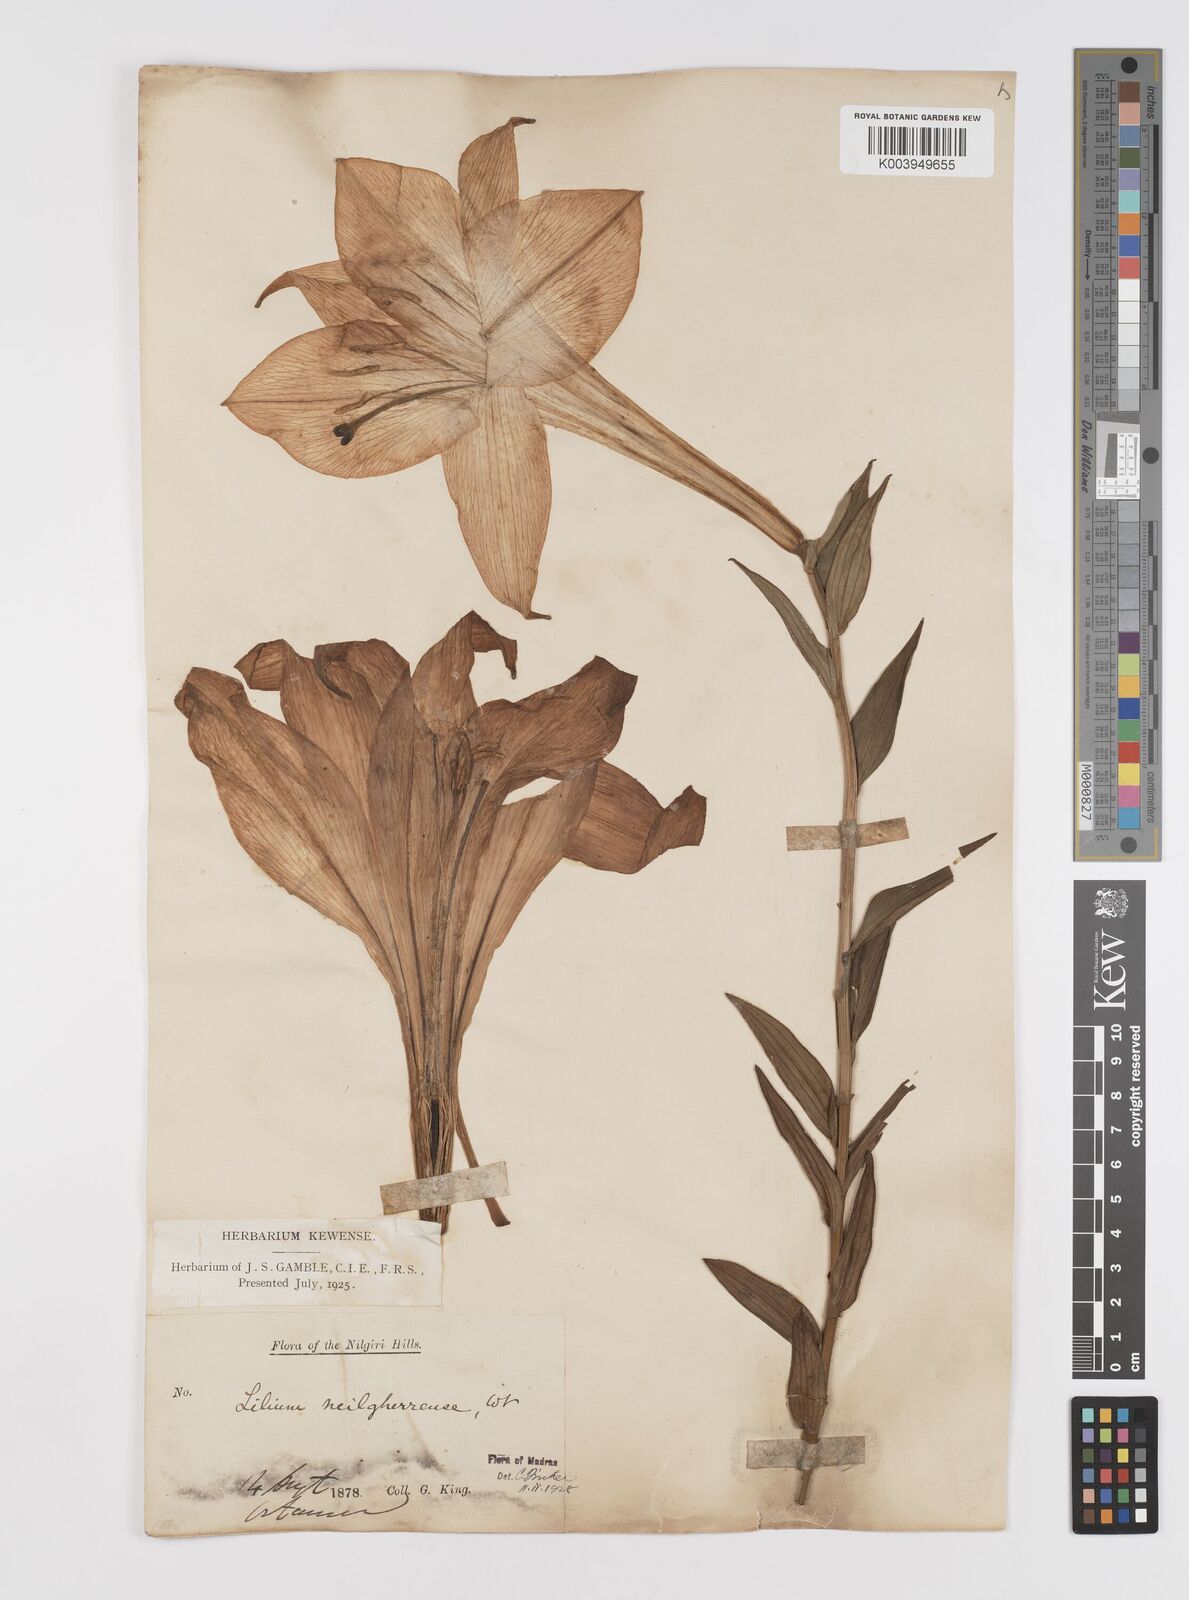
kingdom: Plantae
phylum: Tracheophyta
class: Liliopsida
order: Liliales
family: Liliaceae
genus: Lilium
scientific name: Lilium wallichianum
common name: Wallich's lily
